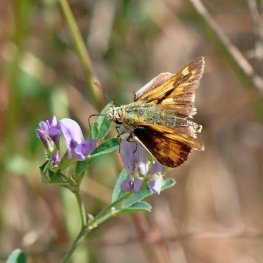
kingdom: Animalia
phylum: Arthropoda
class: Insecta
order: Lepidoptera
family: Hesperiidae
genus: Ochlodes
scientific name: Ochlodes sylvanoides
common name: Woodland Skipper
